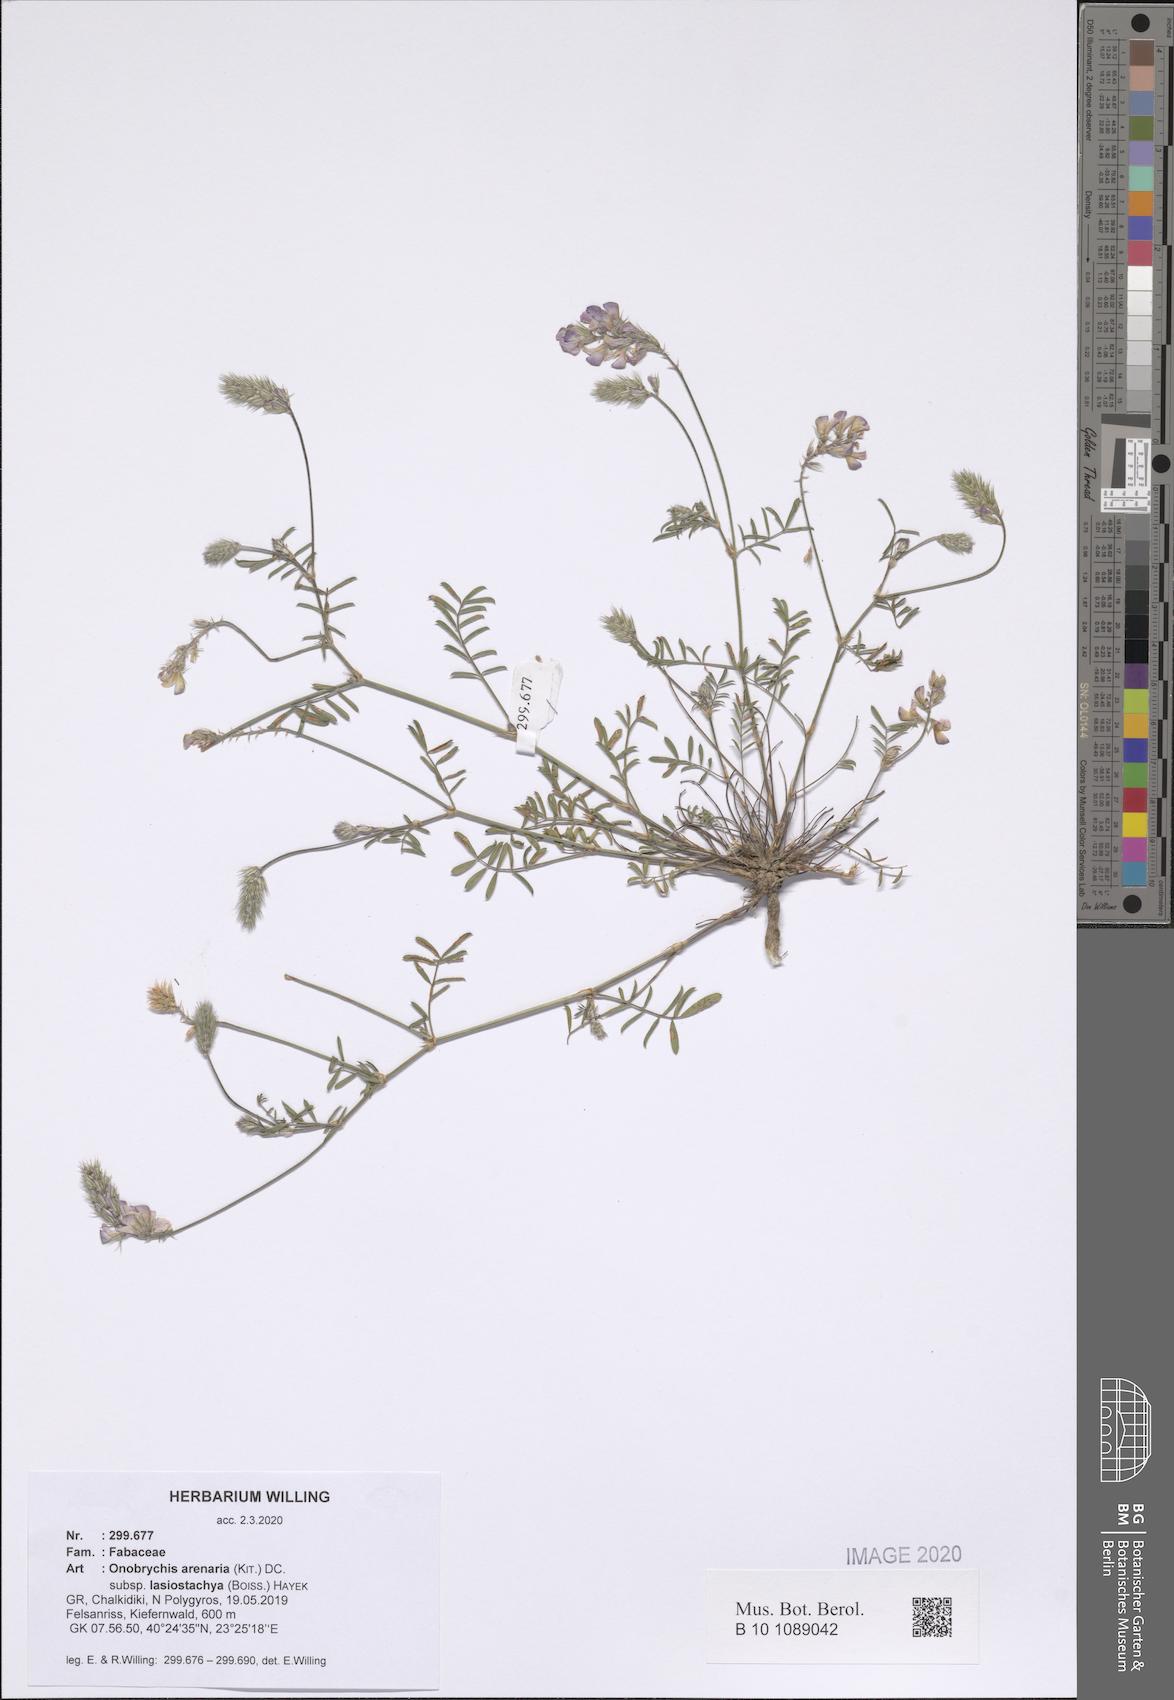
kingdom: Plantae
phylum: Tracheophyta
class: Magnoliopsida
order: Fabales
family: Fabaceae
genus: Onobrychis
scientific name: Onobrychis arenaria
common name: Sand esparcet
